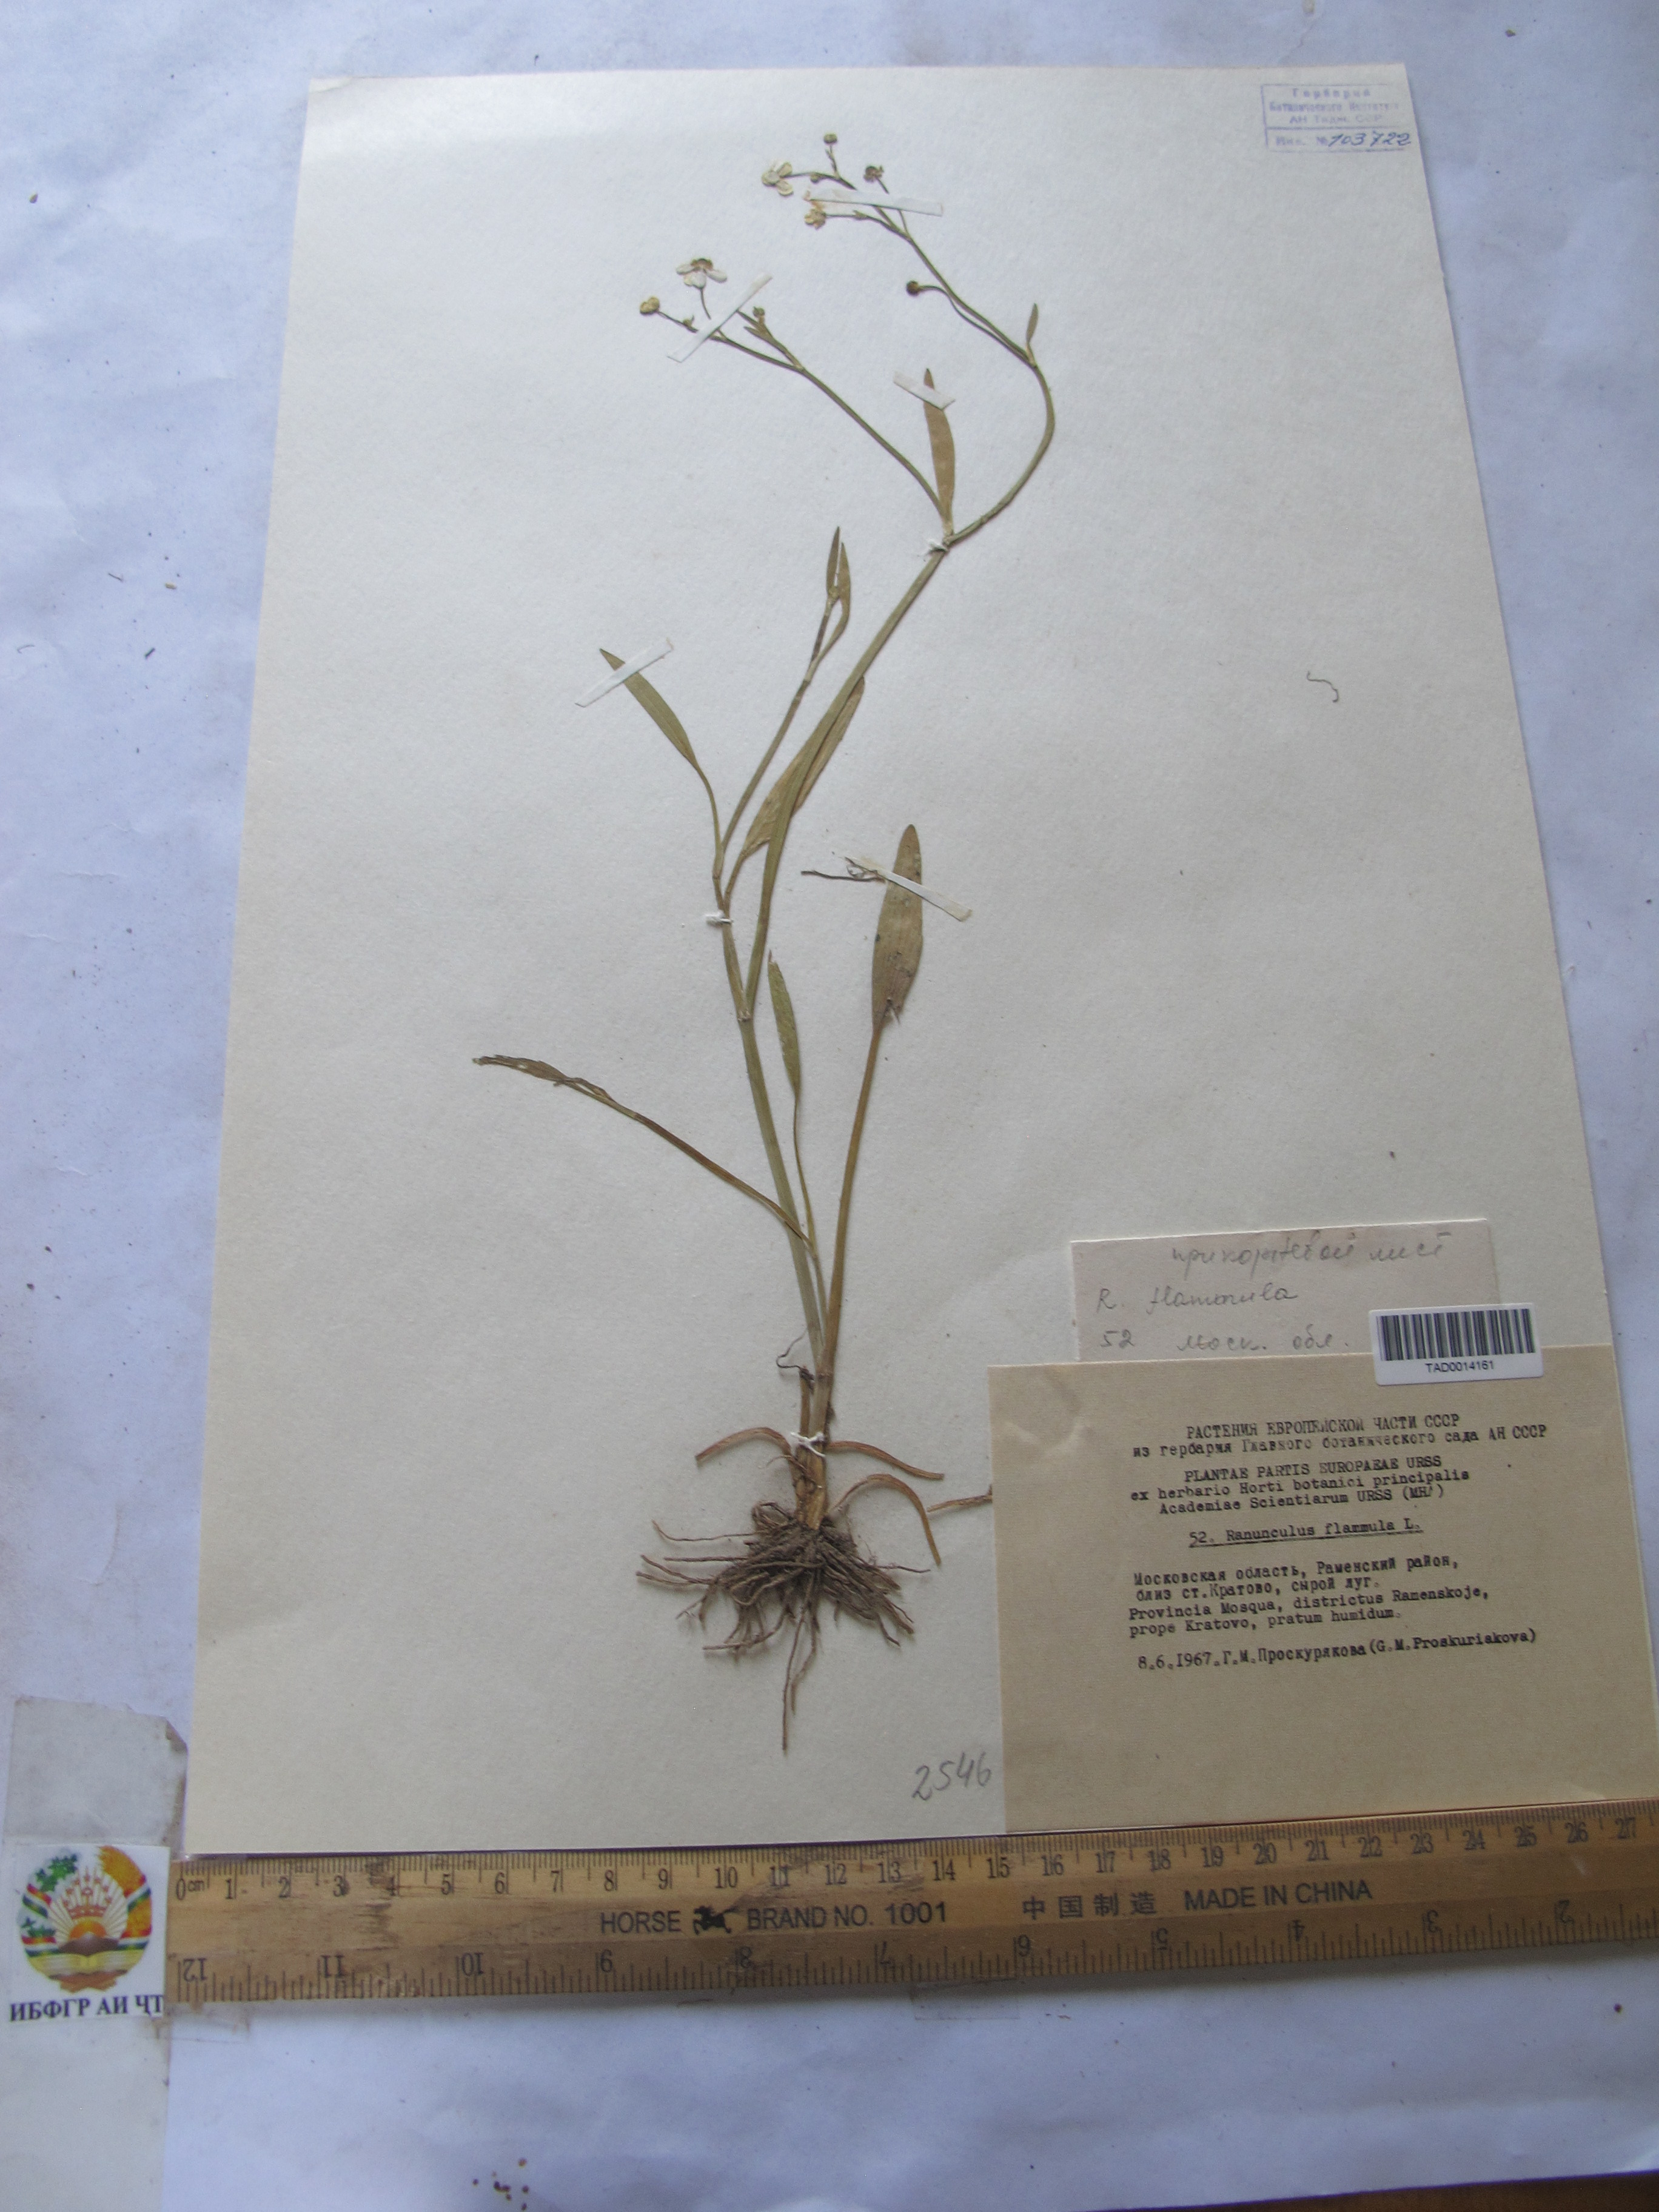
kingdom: Plantae
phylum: Tracheophyta
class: Magnoliopsida
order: Ranunculales
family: Ranunculaceae
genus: Ranunculus
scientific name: Ranunculus flammula
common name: Lesser spearwort
